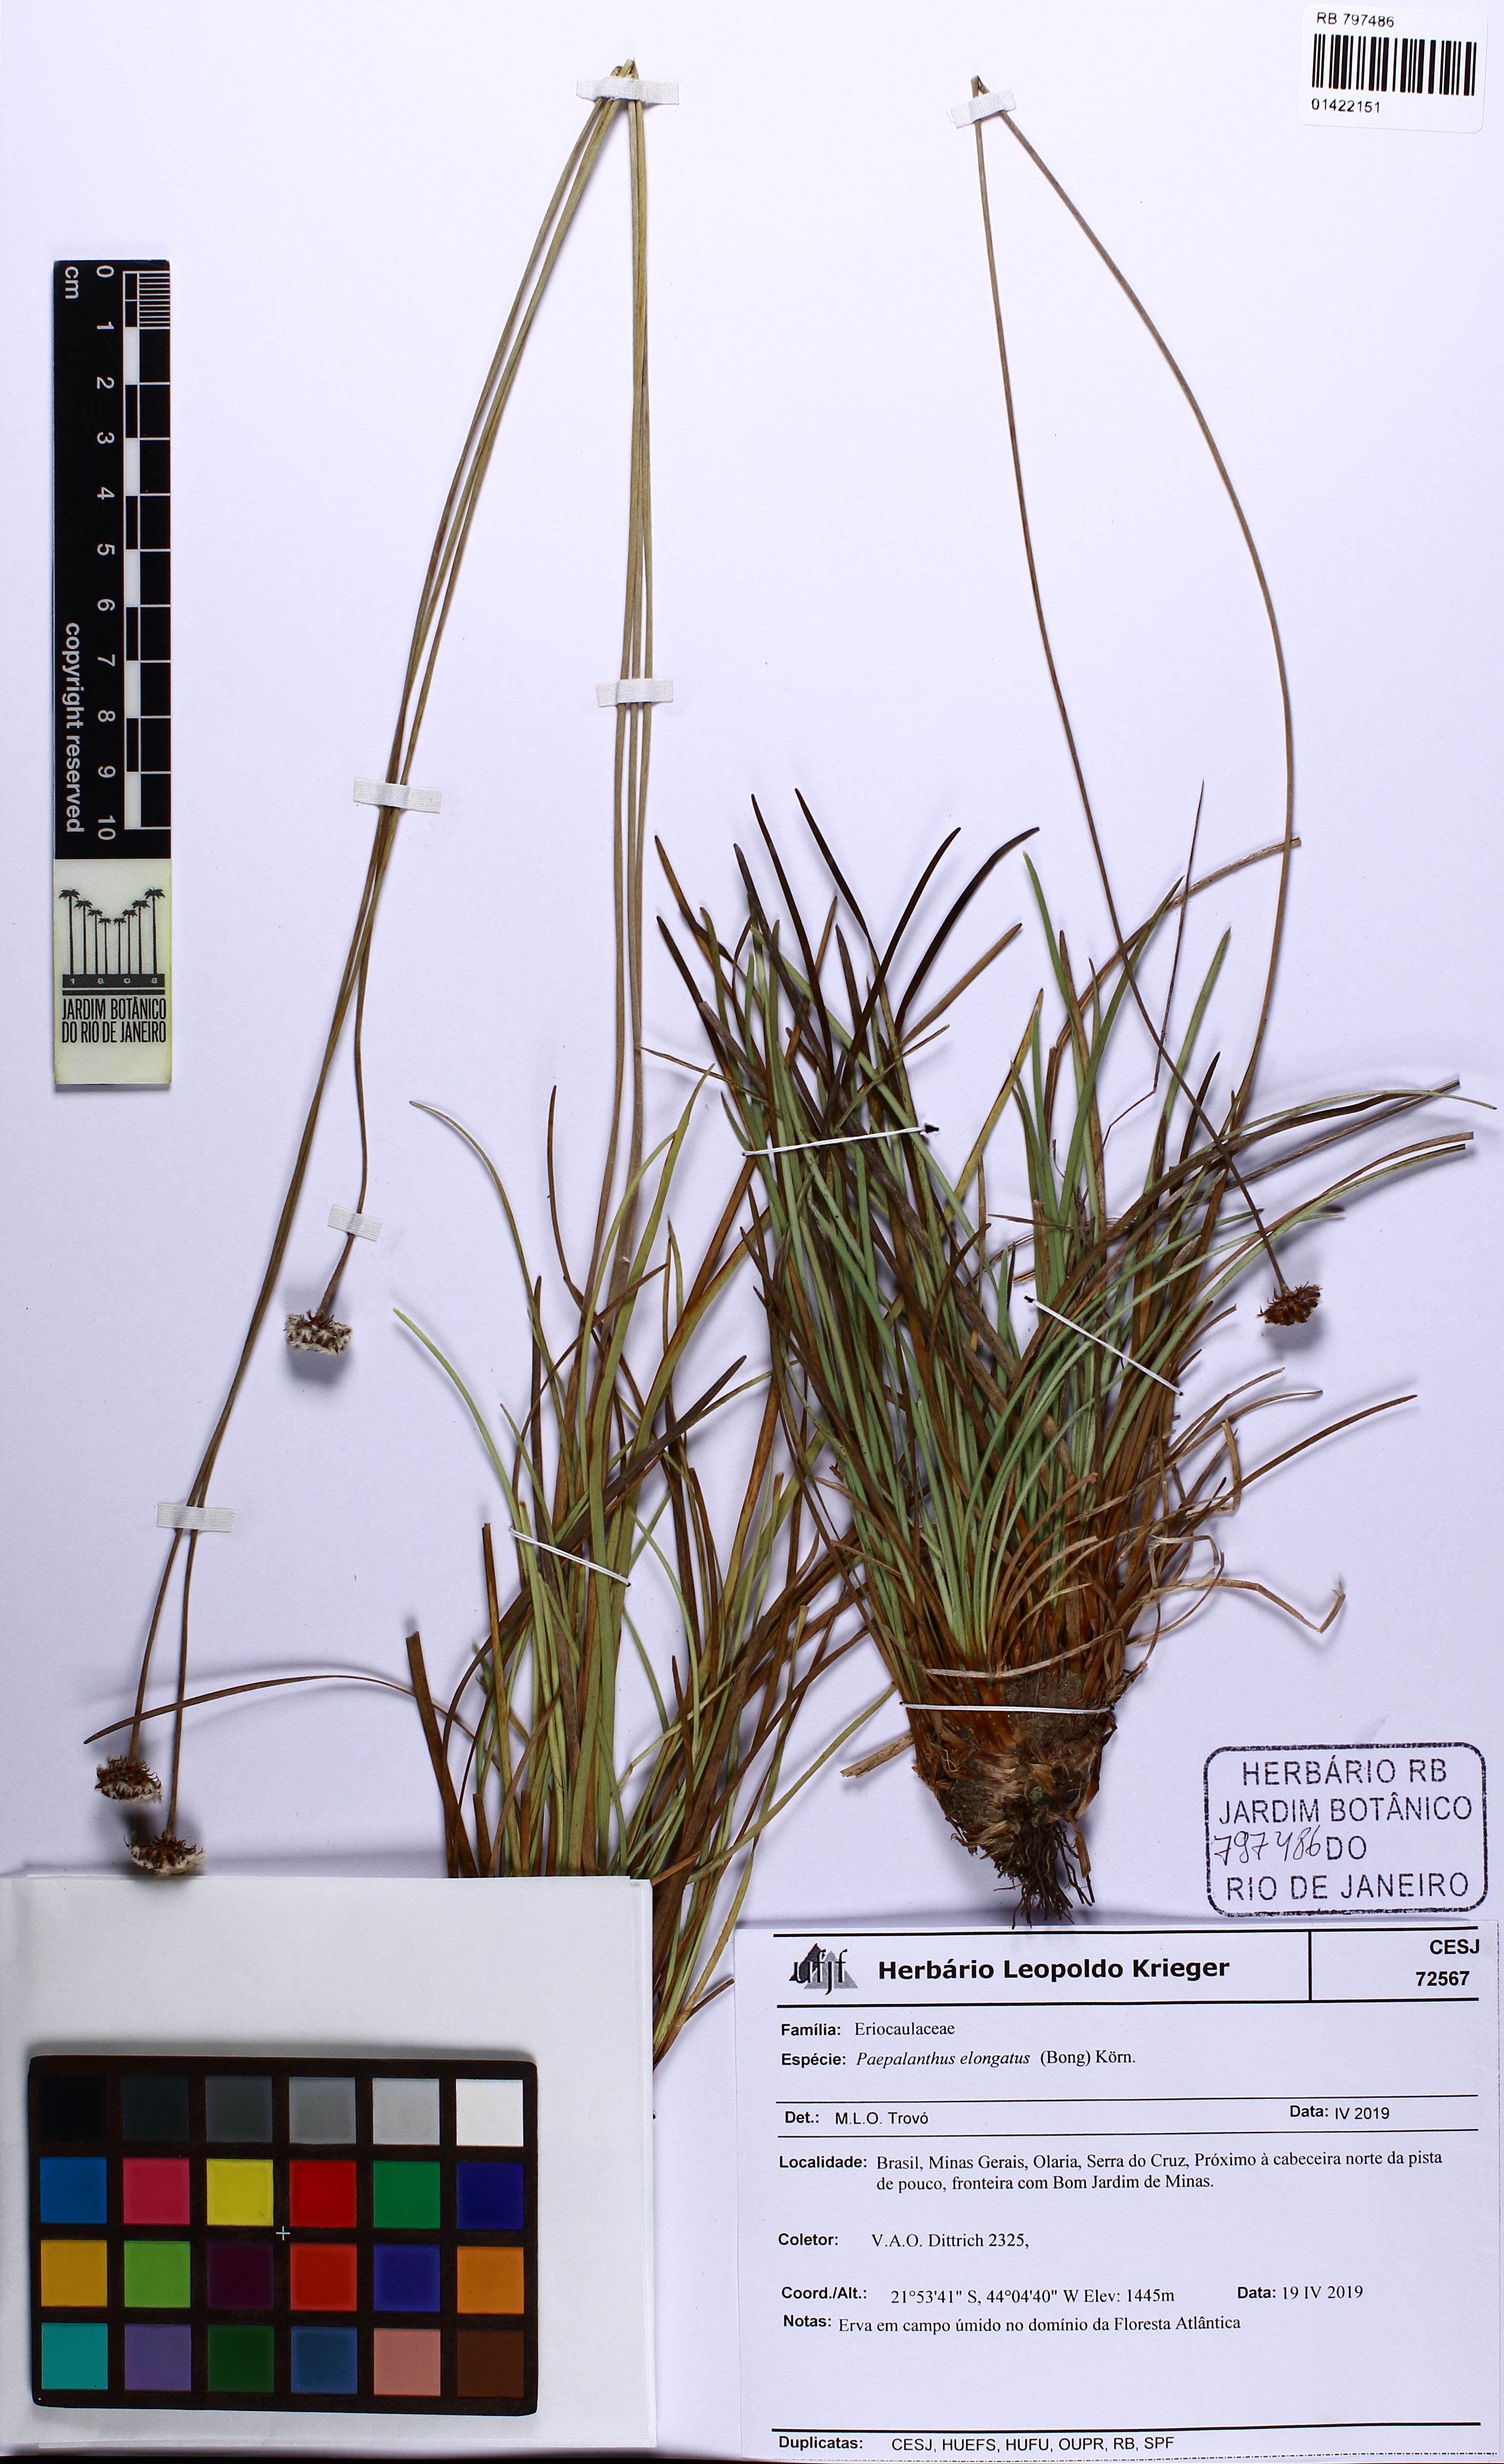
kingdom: Plantae
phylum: Tracheophyta
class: Liliopsida
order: Poales
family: Eriocaulaceae
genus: Paepalanthus
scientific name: Paepalanthus elongatus
